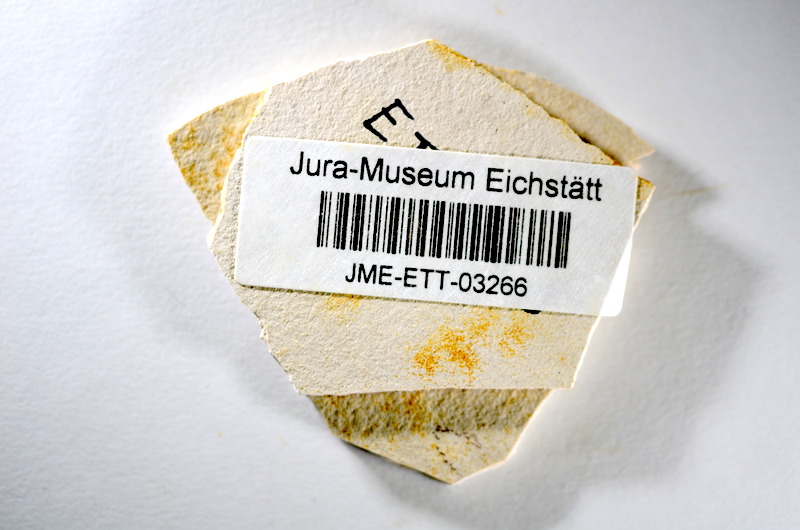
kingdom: Animalia
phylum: Chordata
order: Salmoniformes
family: Orthogonikleithridae
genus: Orthogonikleithrus
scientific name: Orthogonikleithrus hoelli
